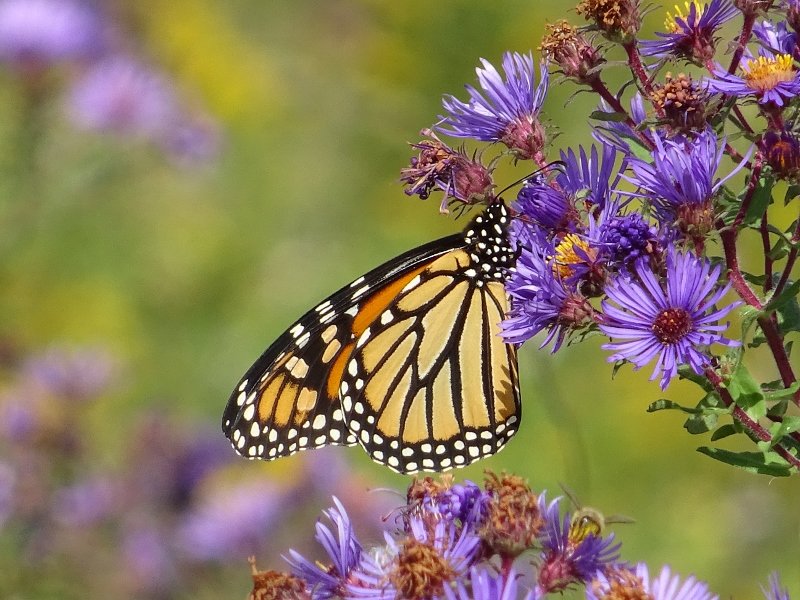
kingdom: Animalia
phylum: Arthropoda
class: Insecta
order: Lepidoptera
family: Nymphalidae
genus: Danaus
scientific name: Danaus plexippus
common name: Monarch
